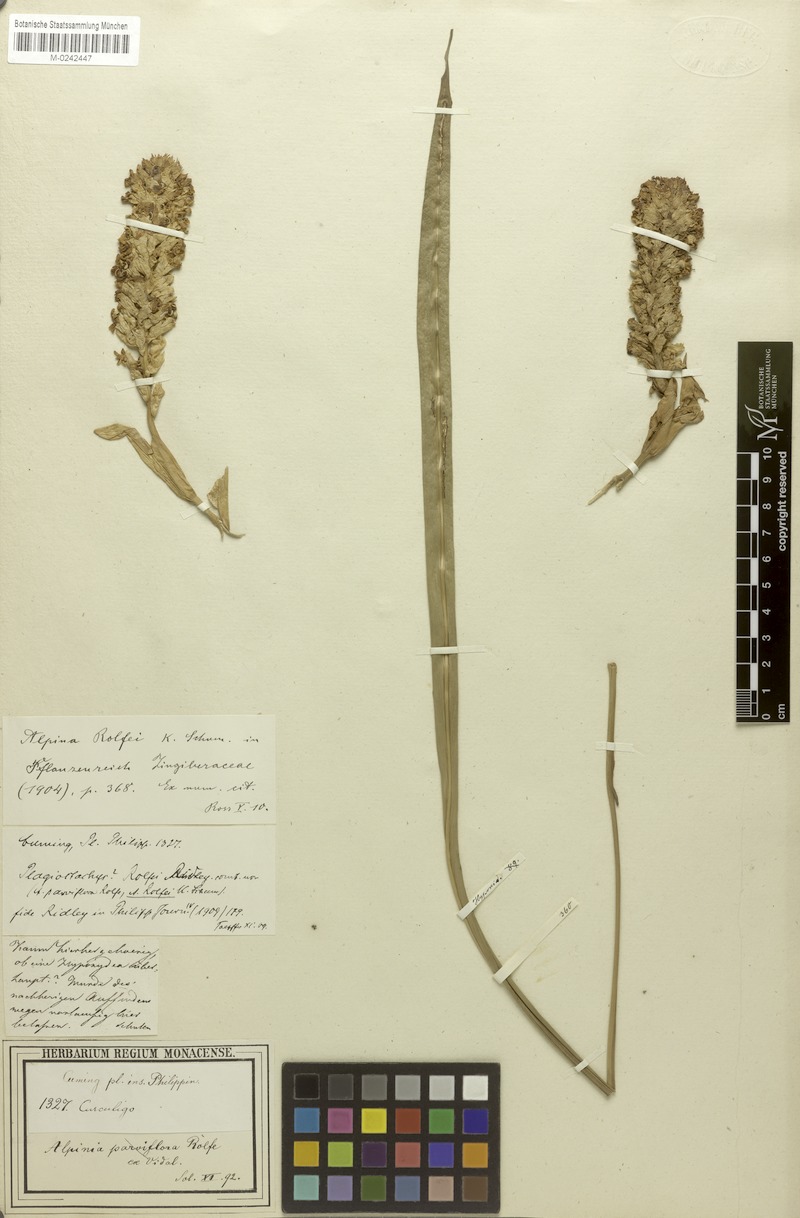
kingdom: Plantae
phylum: Tracheophyta
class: Liliopsida
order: Zingiberales
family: Zingiberaceae
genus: Plagiostachys
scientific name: Plagiostachys rolfei
